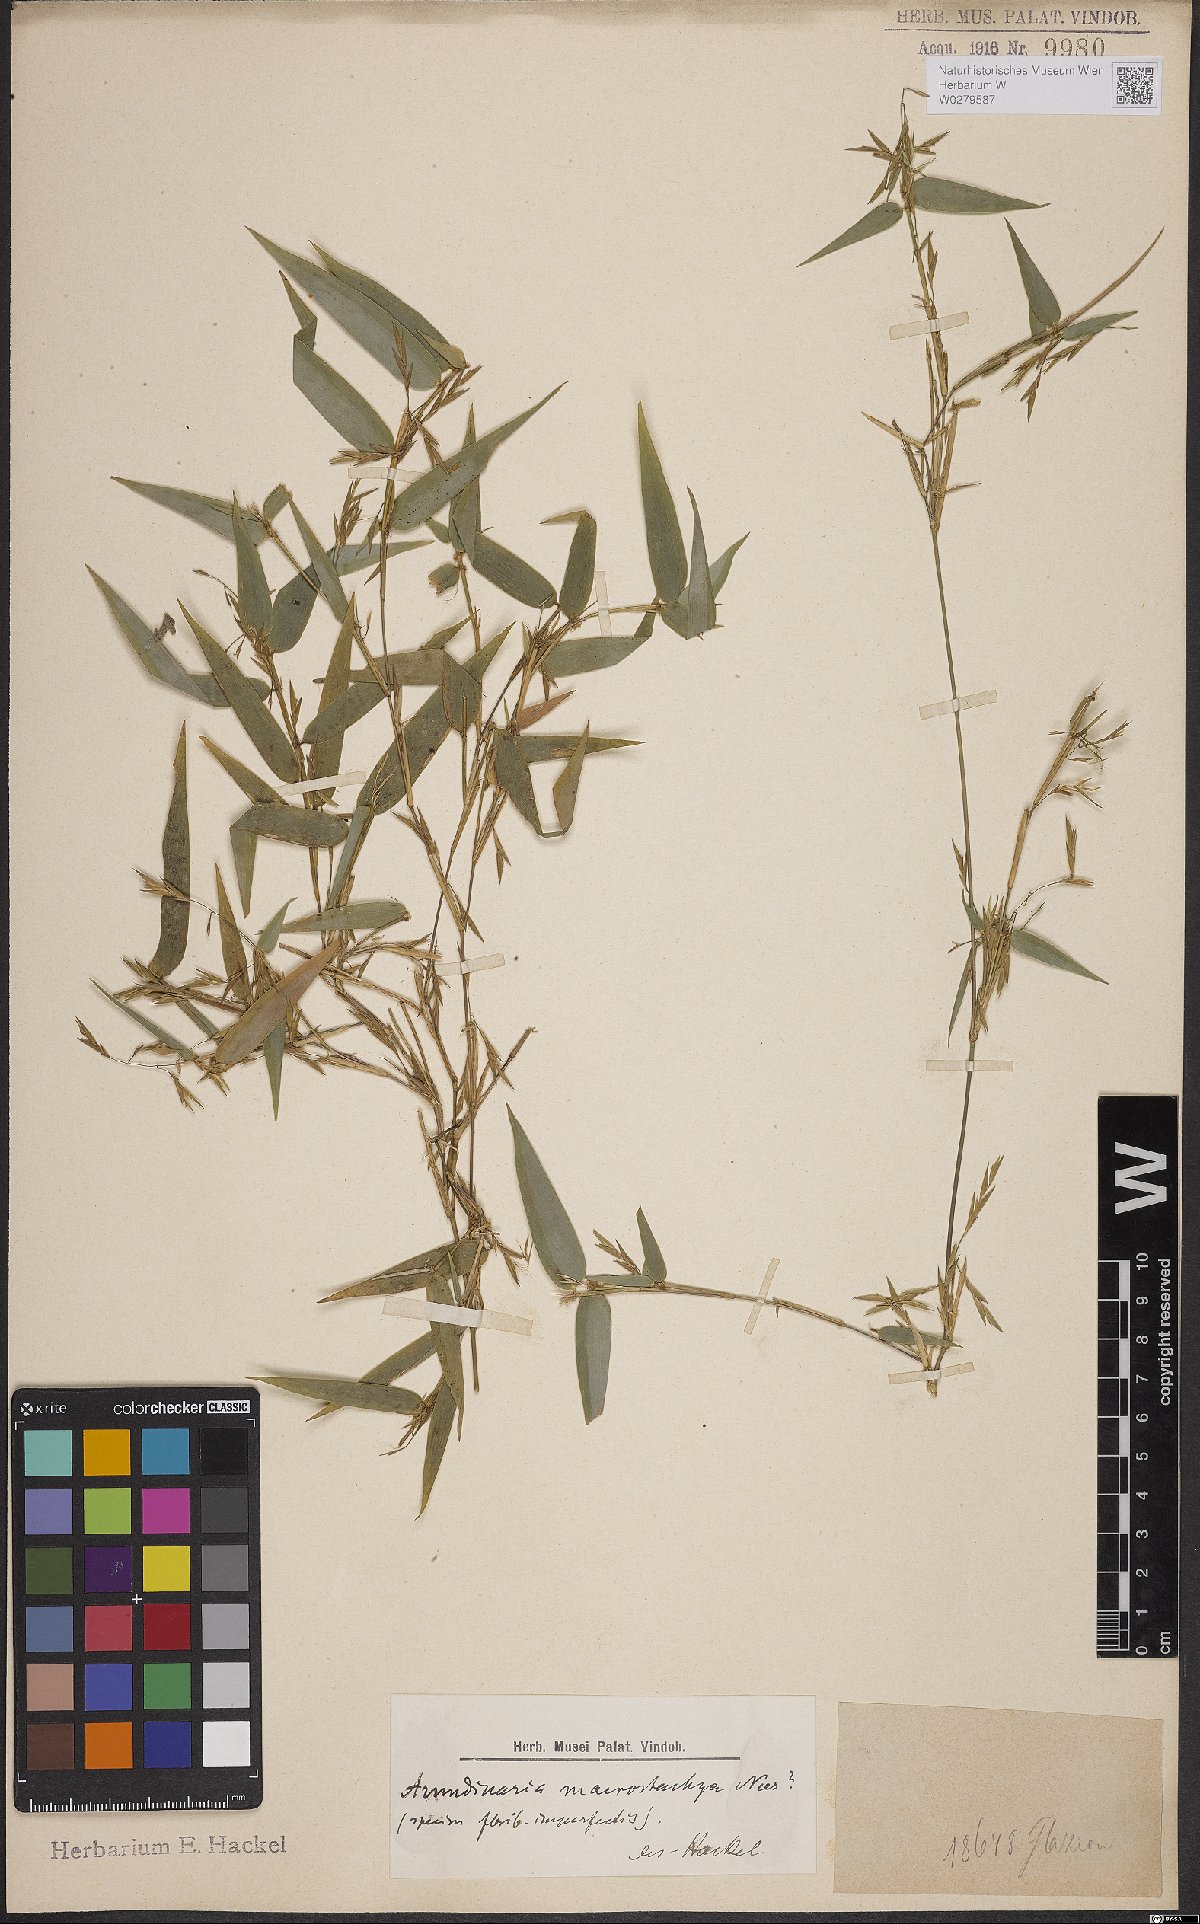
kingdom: Plantae
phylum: Tracheophyta
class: Liliopsida
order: Poales
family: Poaceae
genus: Colanthelia
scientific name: Colanthelia macrostachya
